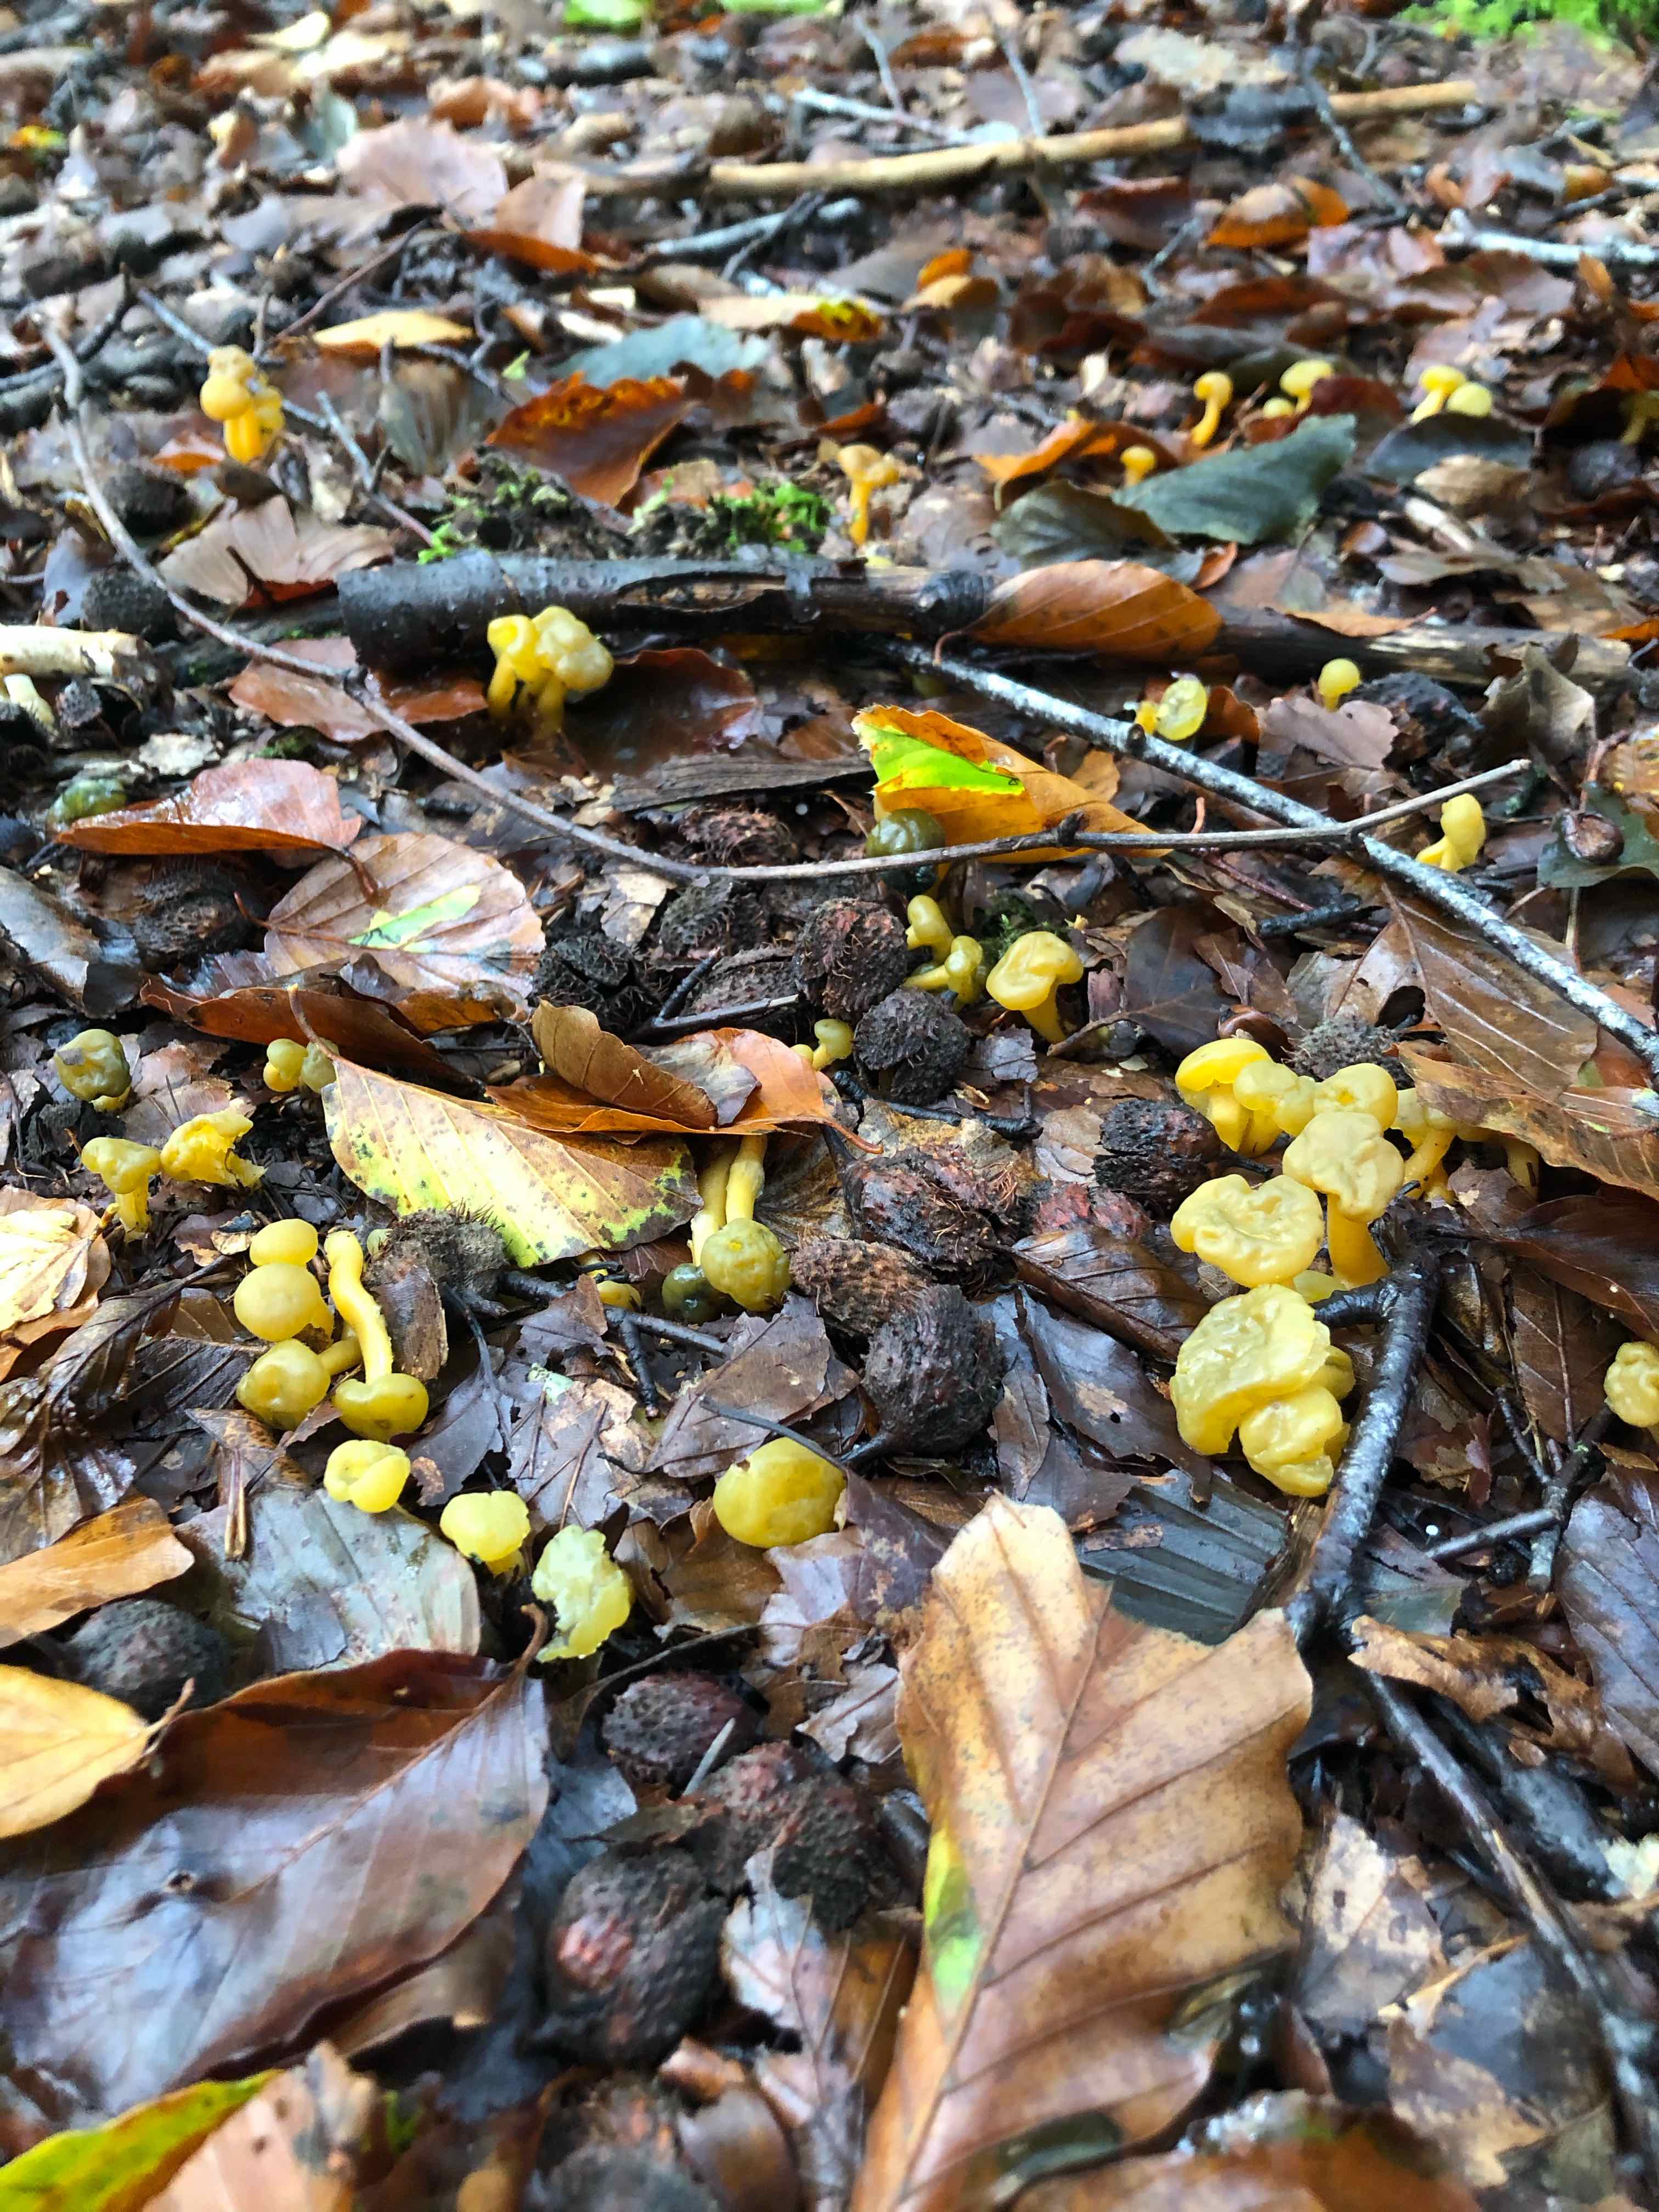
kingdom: Fungi
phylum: Ascomycota
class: Leotiomycetes
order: Leotiales
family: Leotiaceae
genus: Leotia
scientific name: Leotia lubrica
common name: ravsvamp
